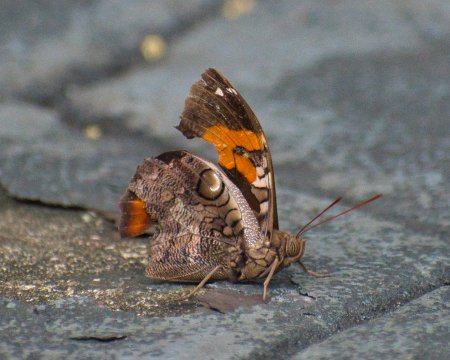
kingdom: Animalia
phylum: Arthropoda
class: Insecta
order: Lepidoptera
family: Nymphalidae
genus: Opsiphanes
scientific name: Opsiphanes cassina
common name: Split-banded Owl-Butterfly
